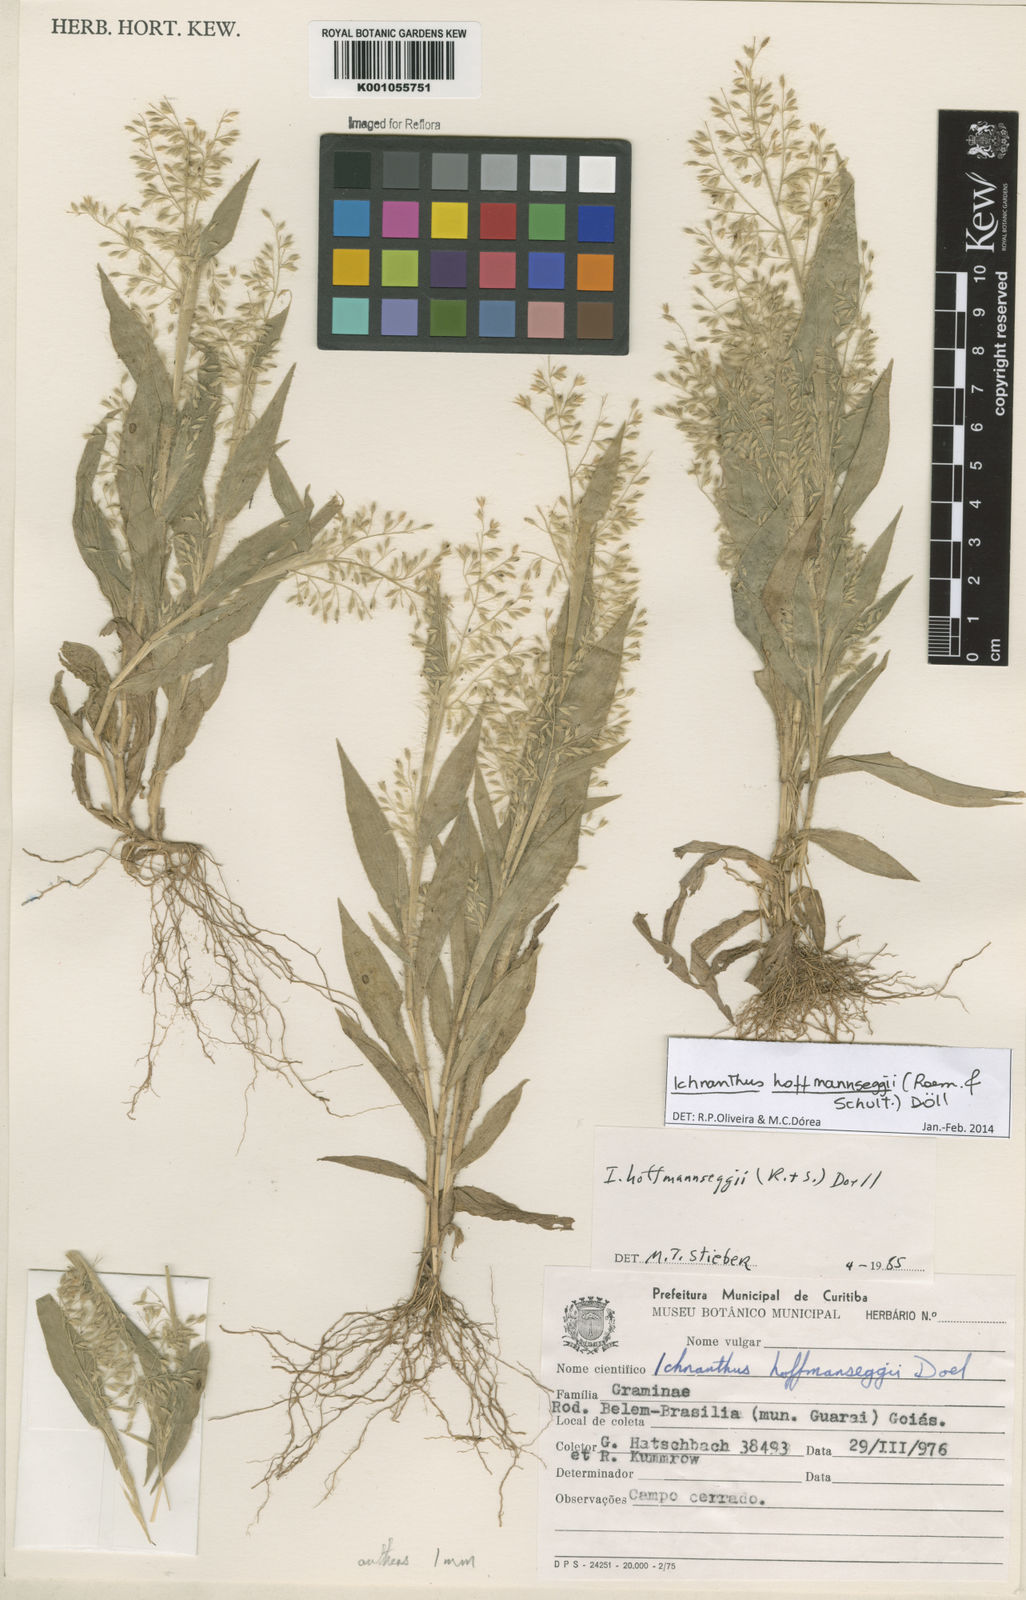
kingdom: Plantae
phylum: Tracheophyta
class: Liliopsida
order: Poales
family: Poaceae
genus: Ichnanthus
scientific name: Ichnanthus
